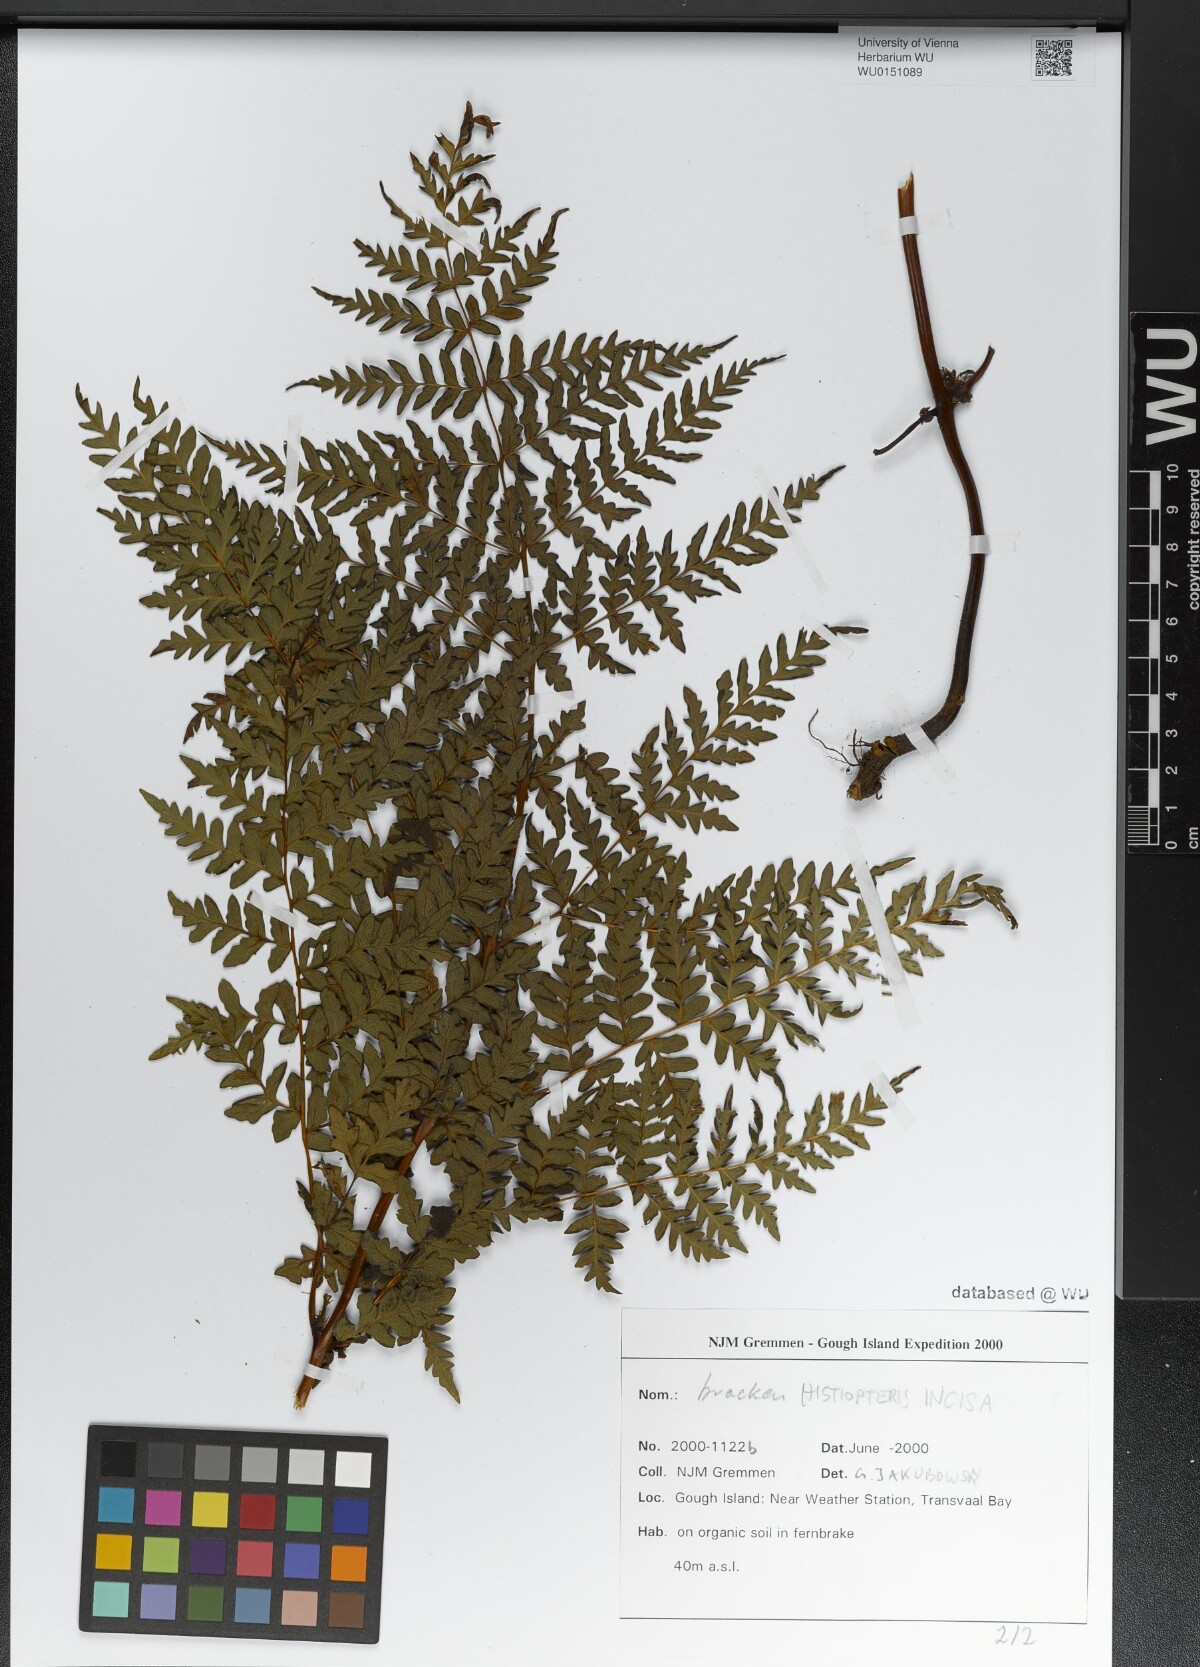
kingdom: Plantae
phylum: Tracheophyta
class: Polypodiopsida
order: Polypodiales
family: Dennstaedtiaceae
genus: Histiopteris
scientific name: Histiopteris incisa
